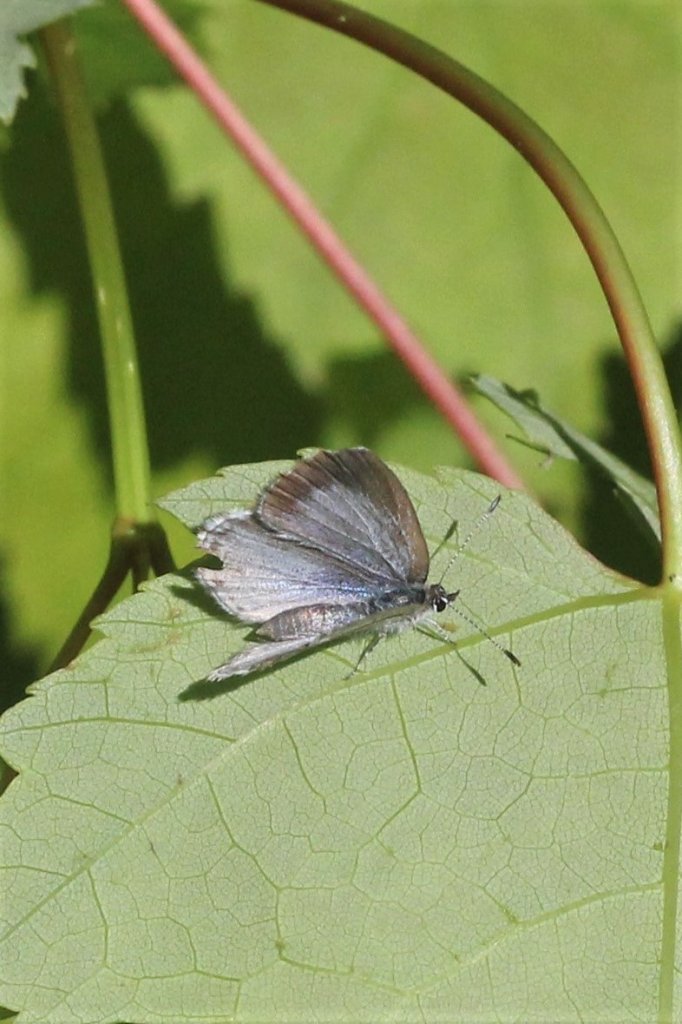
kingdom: Animalia
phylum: Arthropoda
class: Insecta
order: Lepidoptera
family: Lycaenidae
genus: Celastrina
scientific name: Celastrina lucia
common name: Northern Spring Azure
